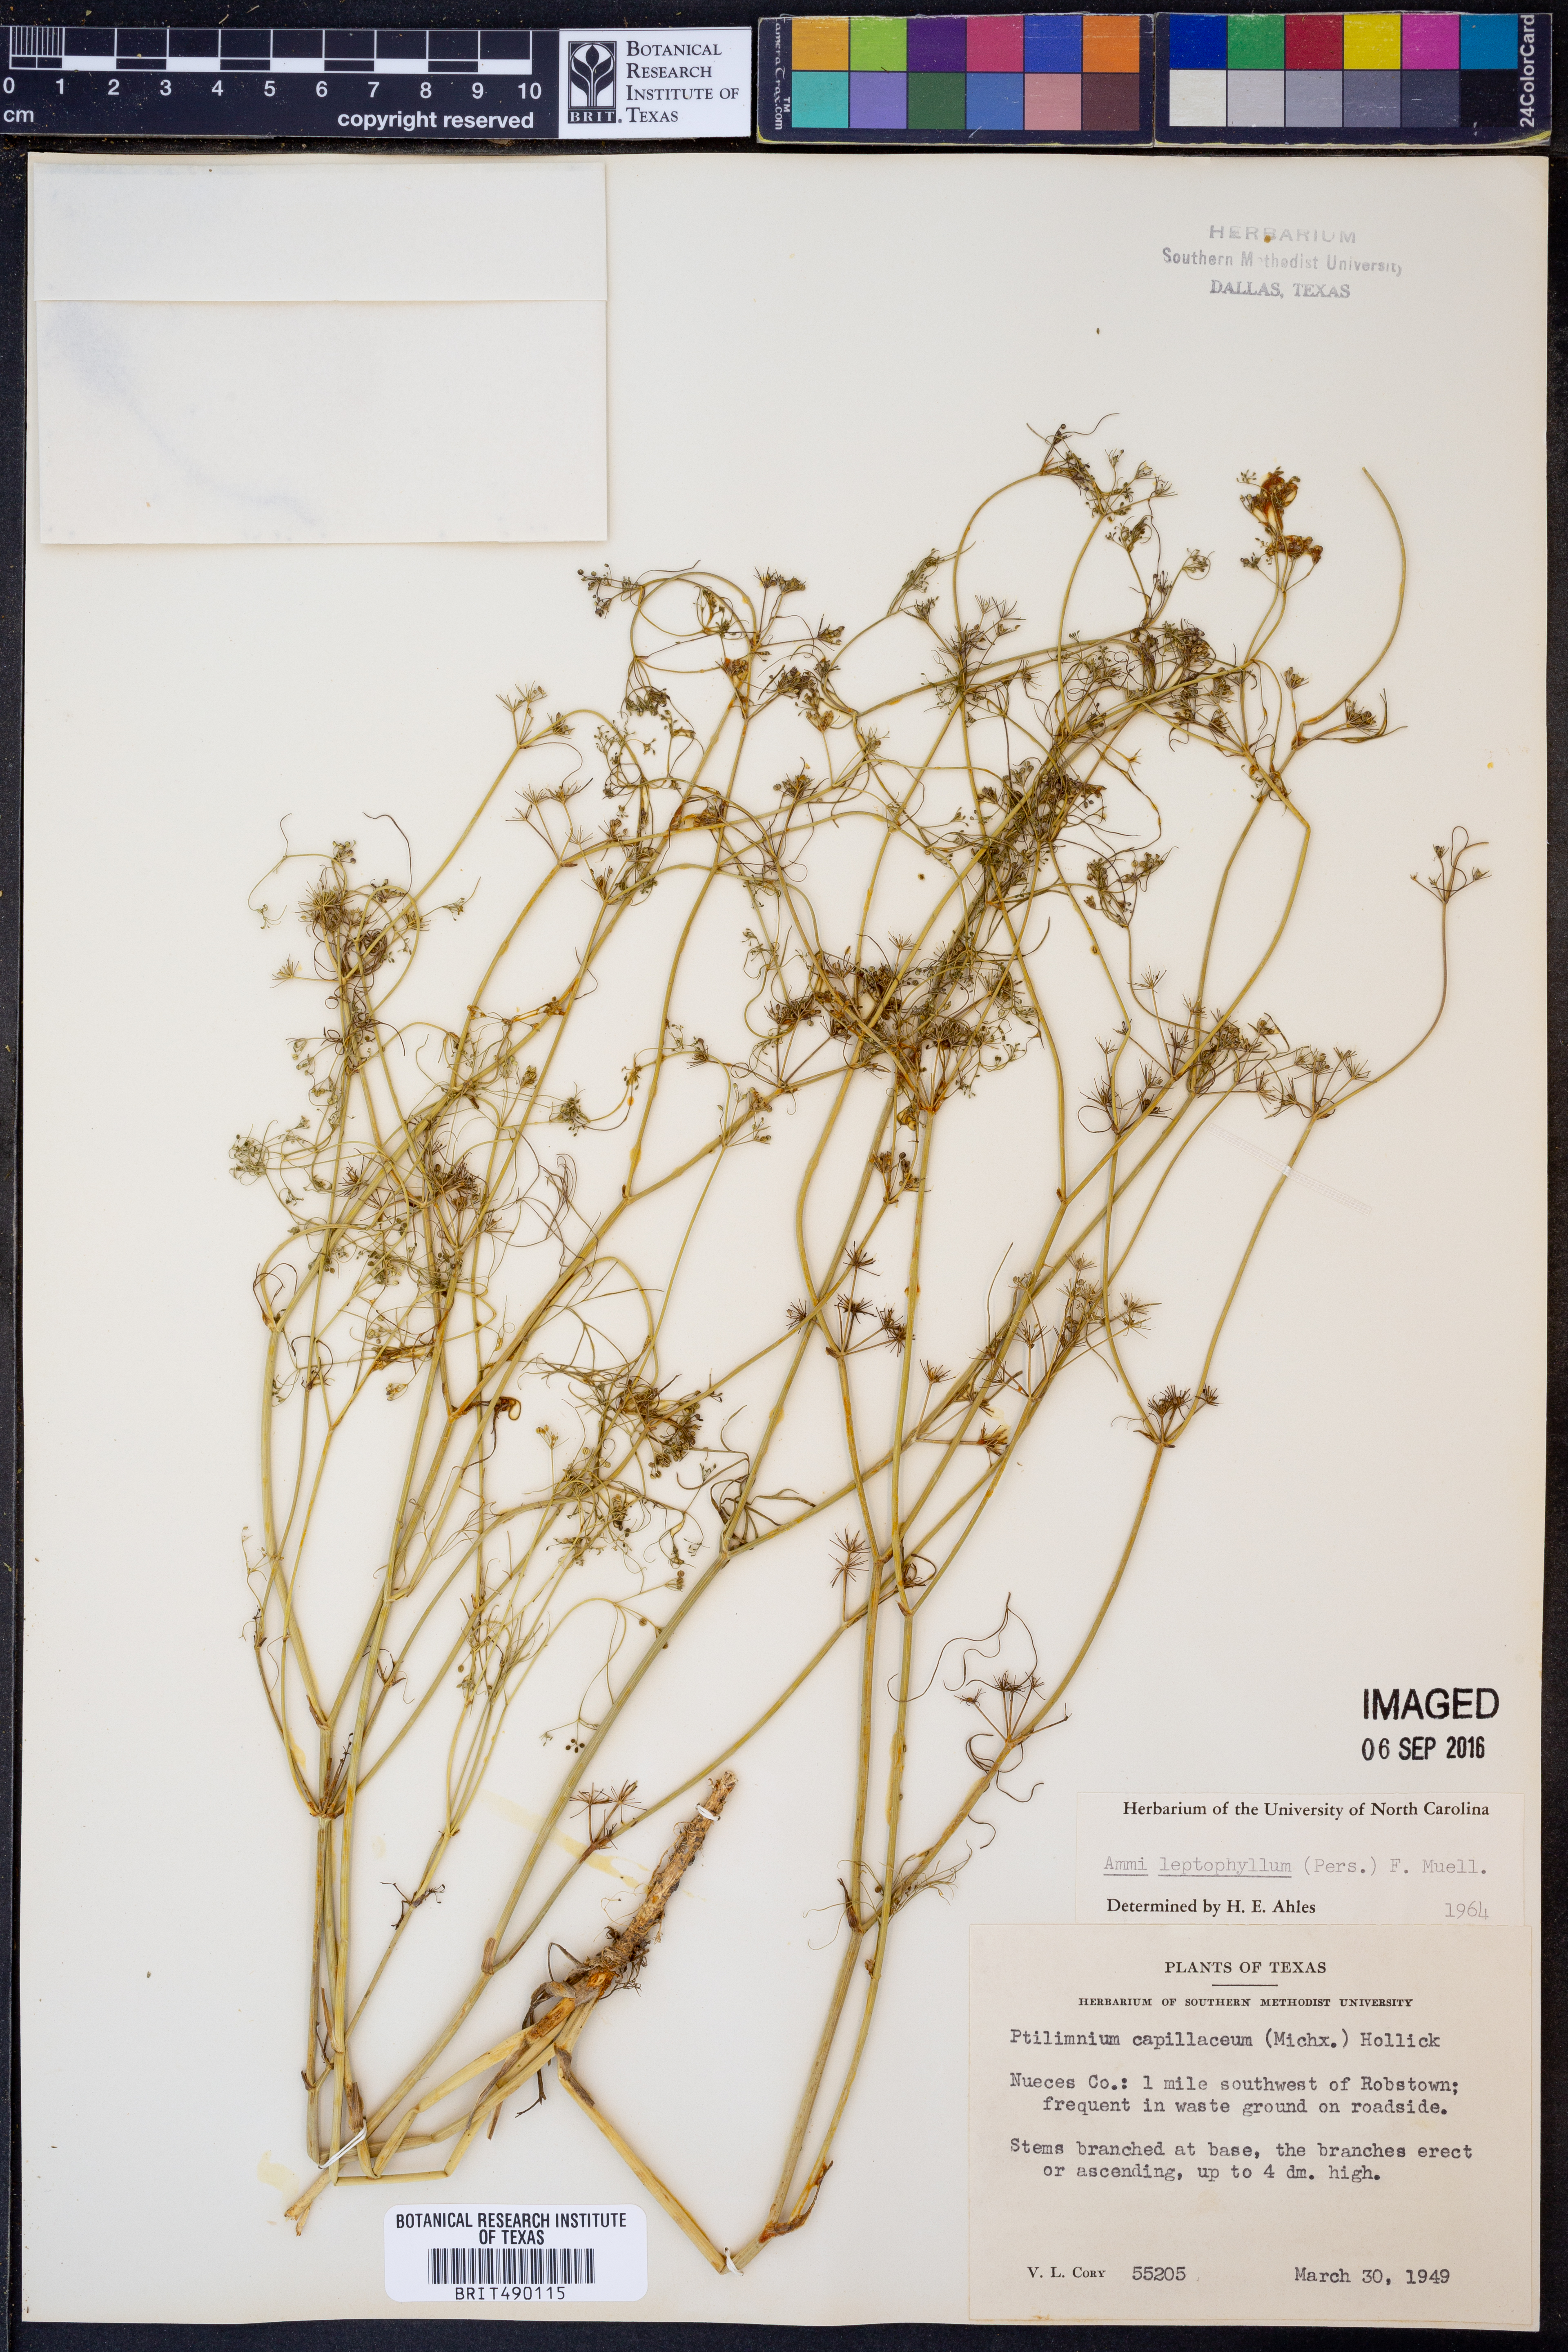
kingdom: Plantae
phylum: Tracheophyta
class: Magnoliopsida
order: Apiales
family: Apiaceae
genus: Cyclospermum
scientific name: Cyclospermum leptophyllum
